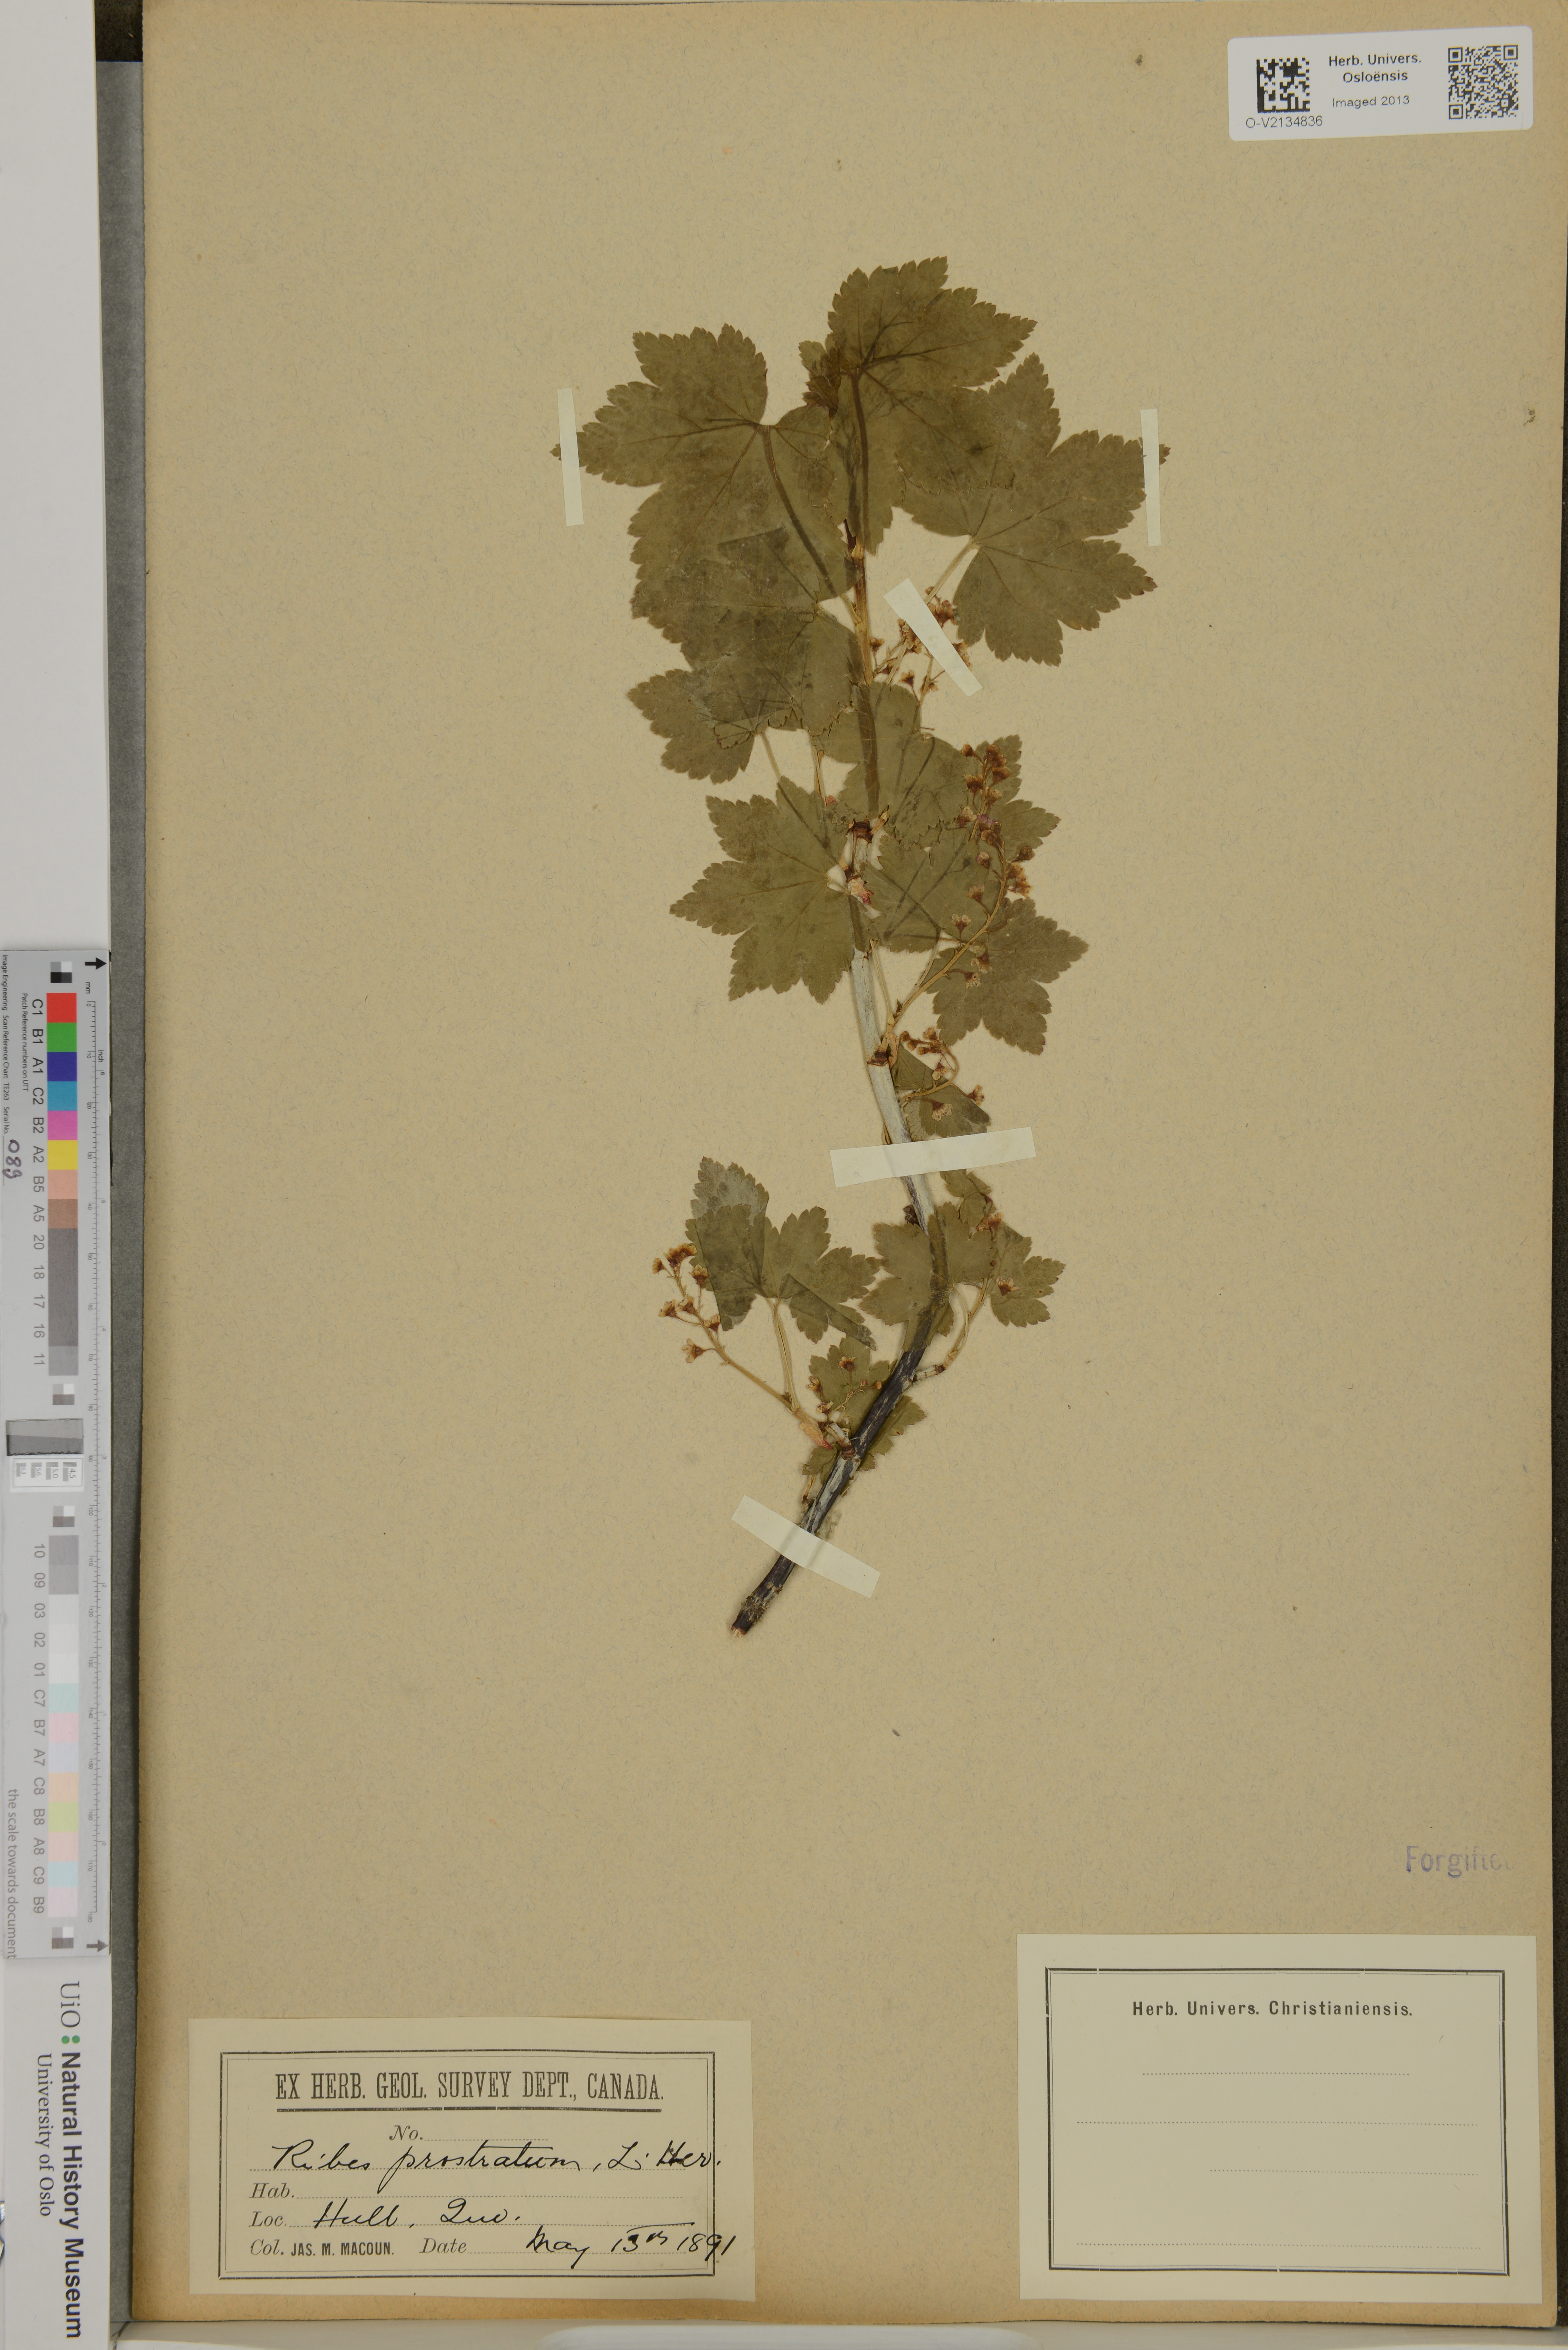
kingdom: Plantae
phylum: Tracheophyta
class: Magnoliopsida
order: Saxifragales
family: Grossulariaceae
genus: Ribes
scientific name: Ribes glandulosum
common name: Skunk currant
